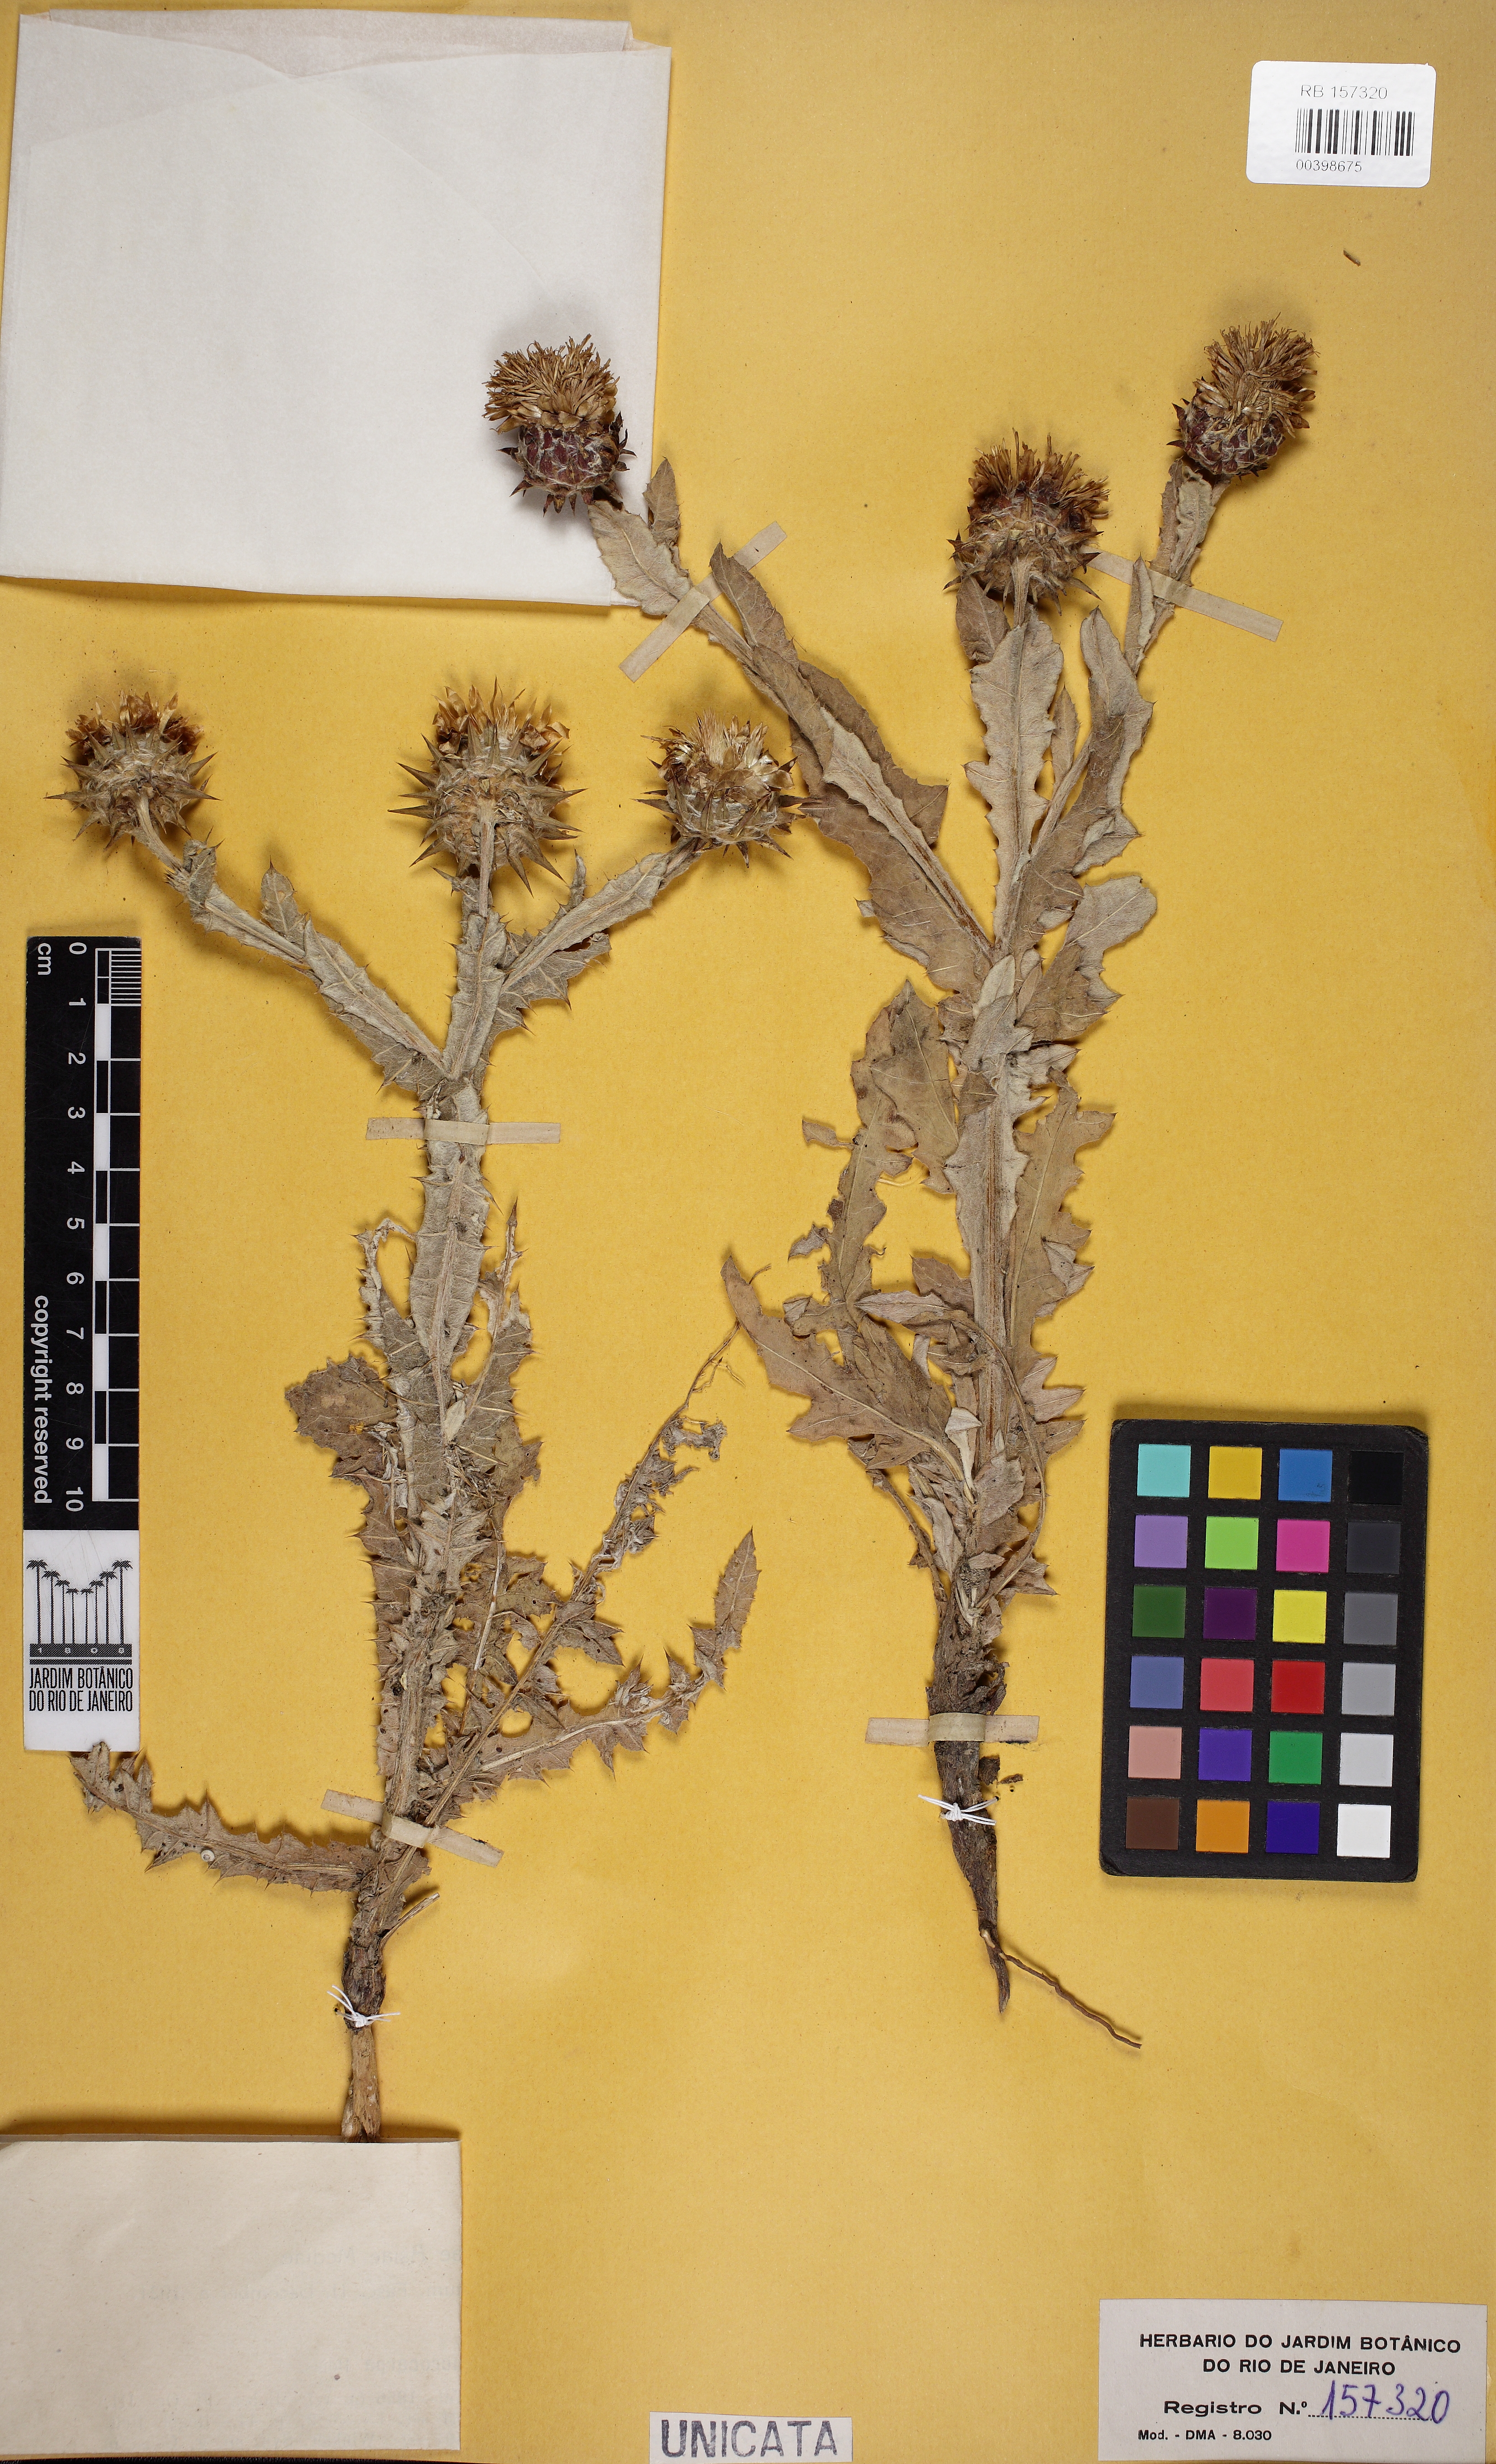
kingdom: Plantae
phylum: Tracheophyta
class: Magnoliopsida
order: Asterales
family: Asteraceae
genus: Cousinia
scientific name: Cousinia microcarpa
